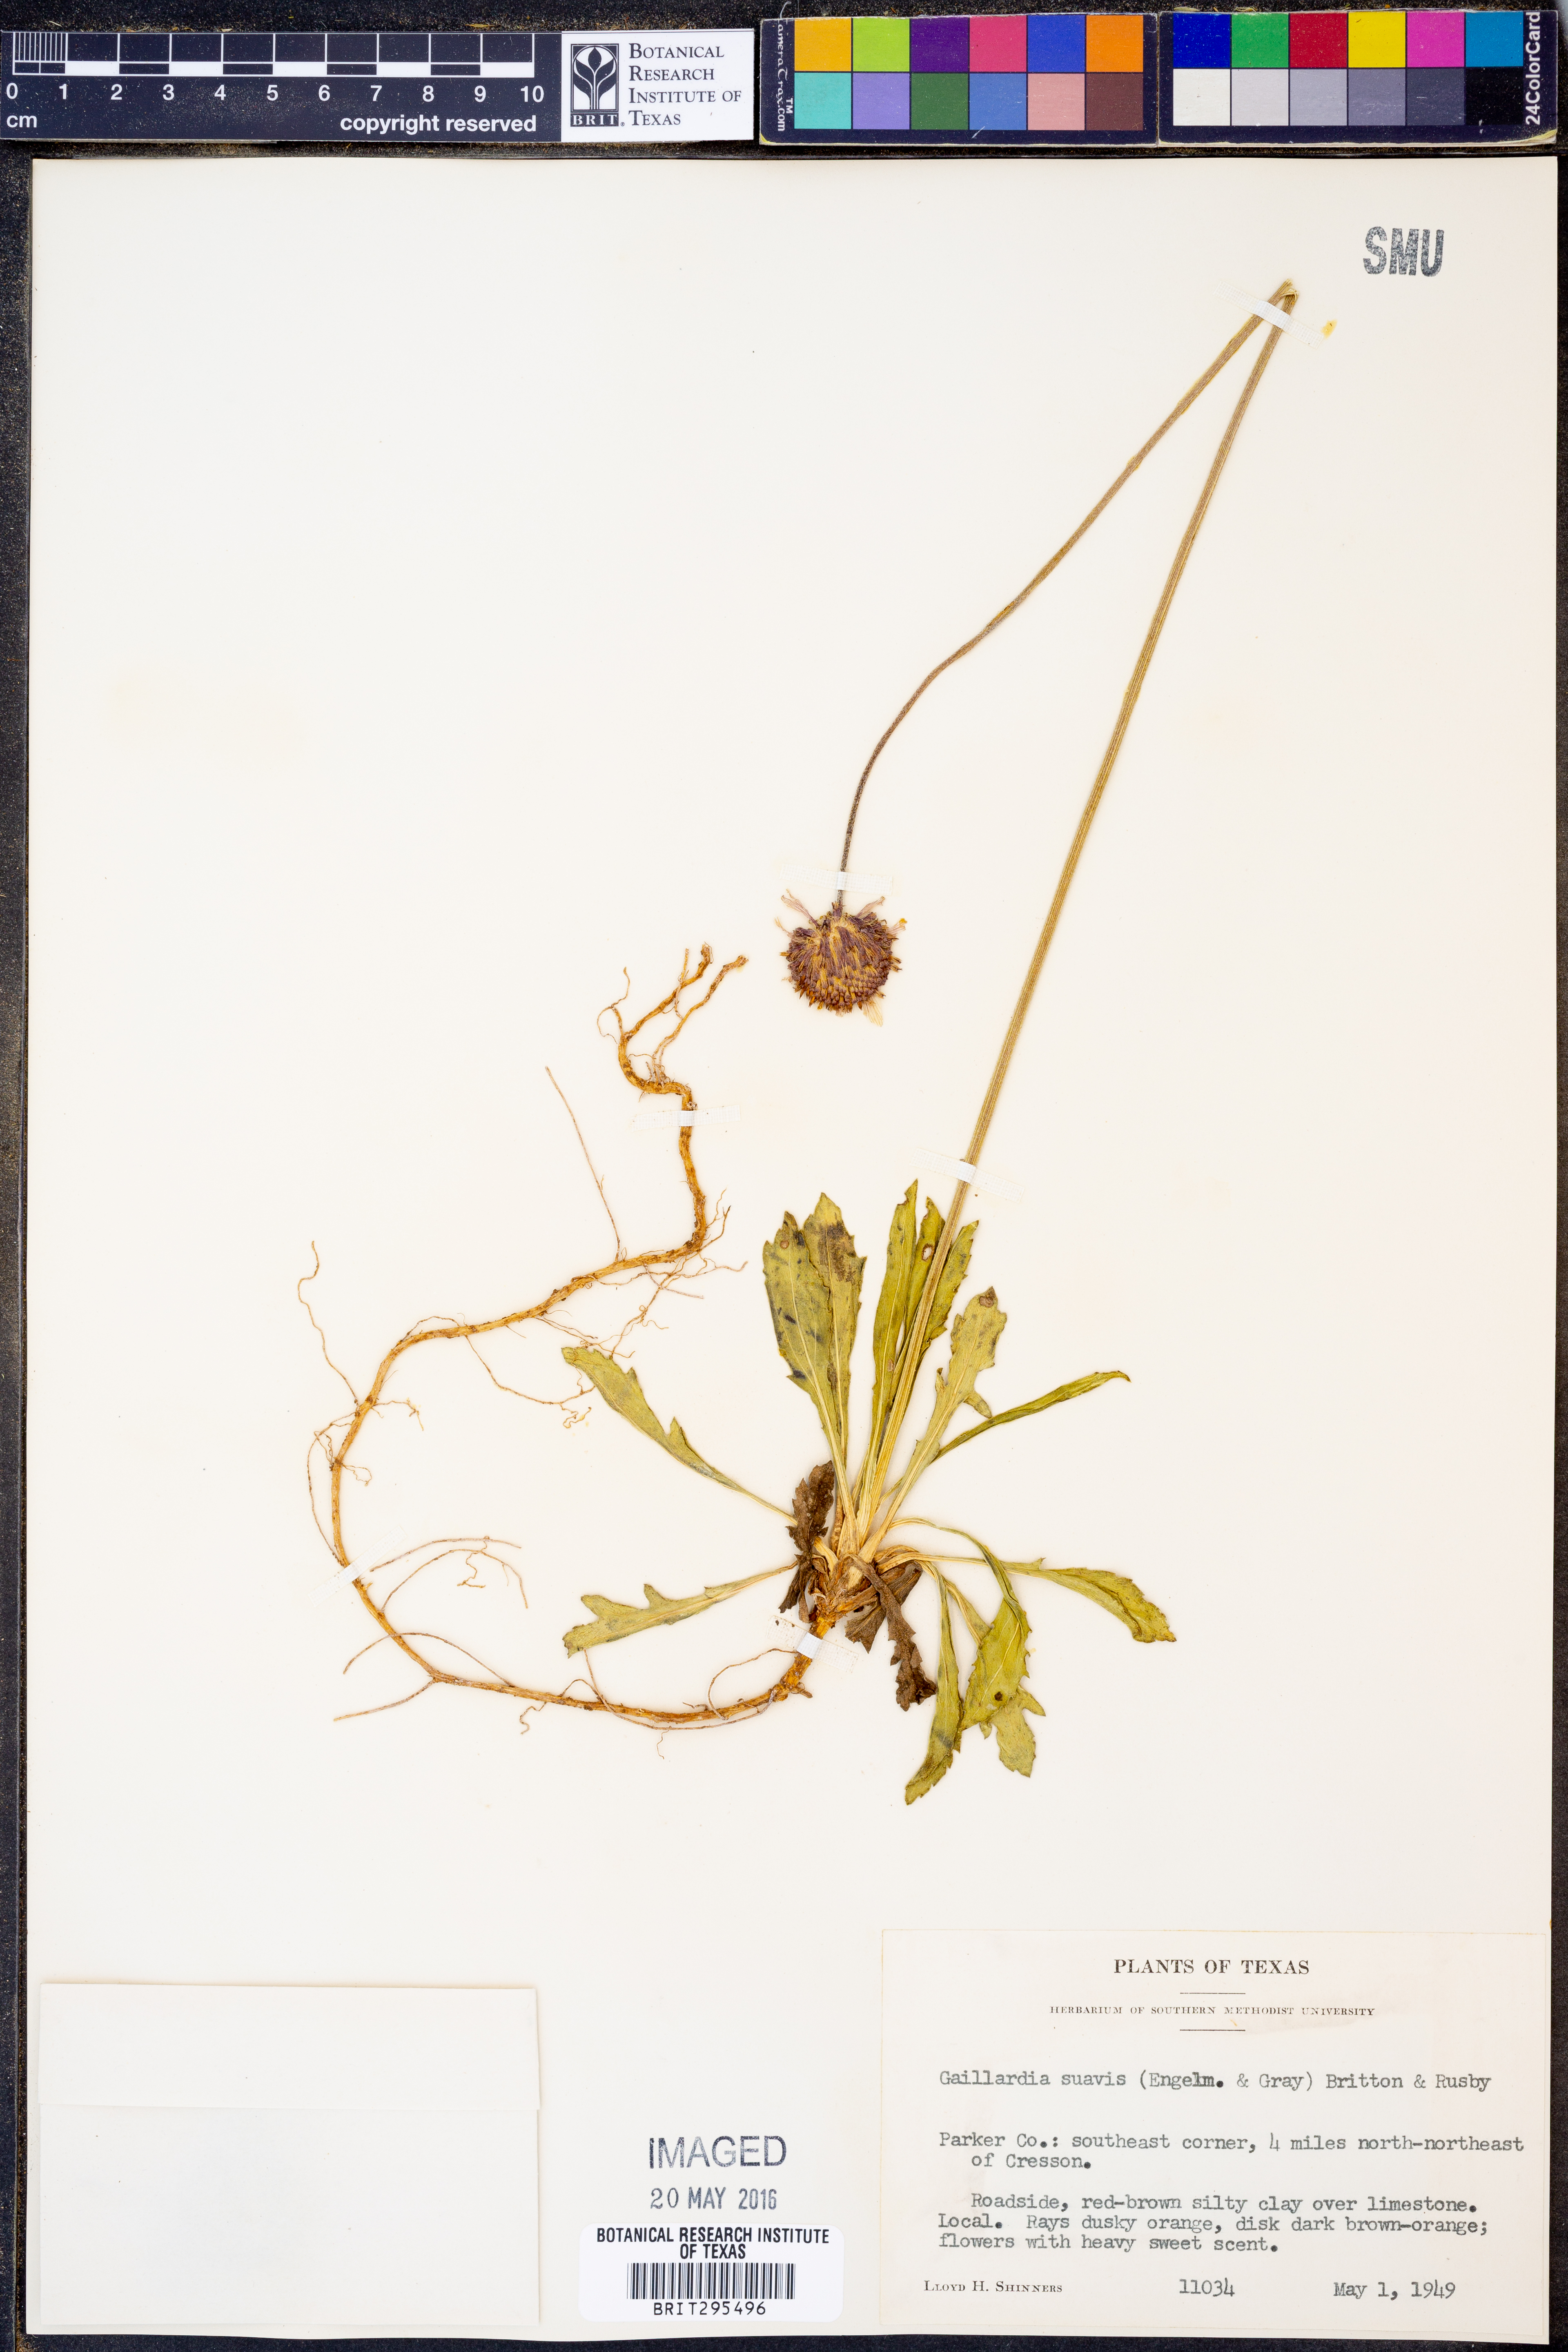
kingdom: Plantae
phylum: Tracheophyta
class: Magnoliopsida
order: Asterales
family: Asteraceae
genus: Gaillardia
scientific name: Gaillardia suavis
